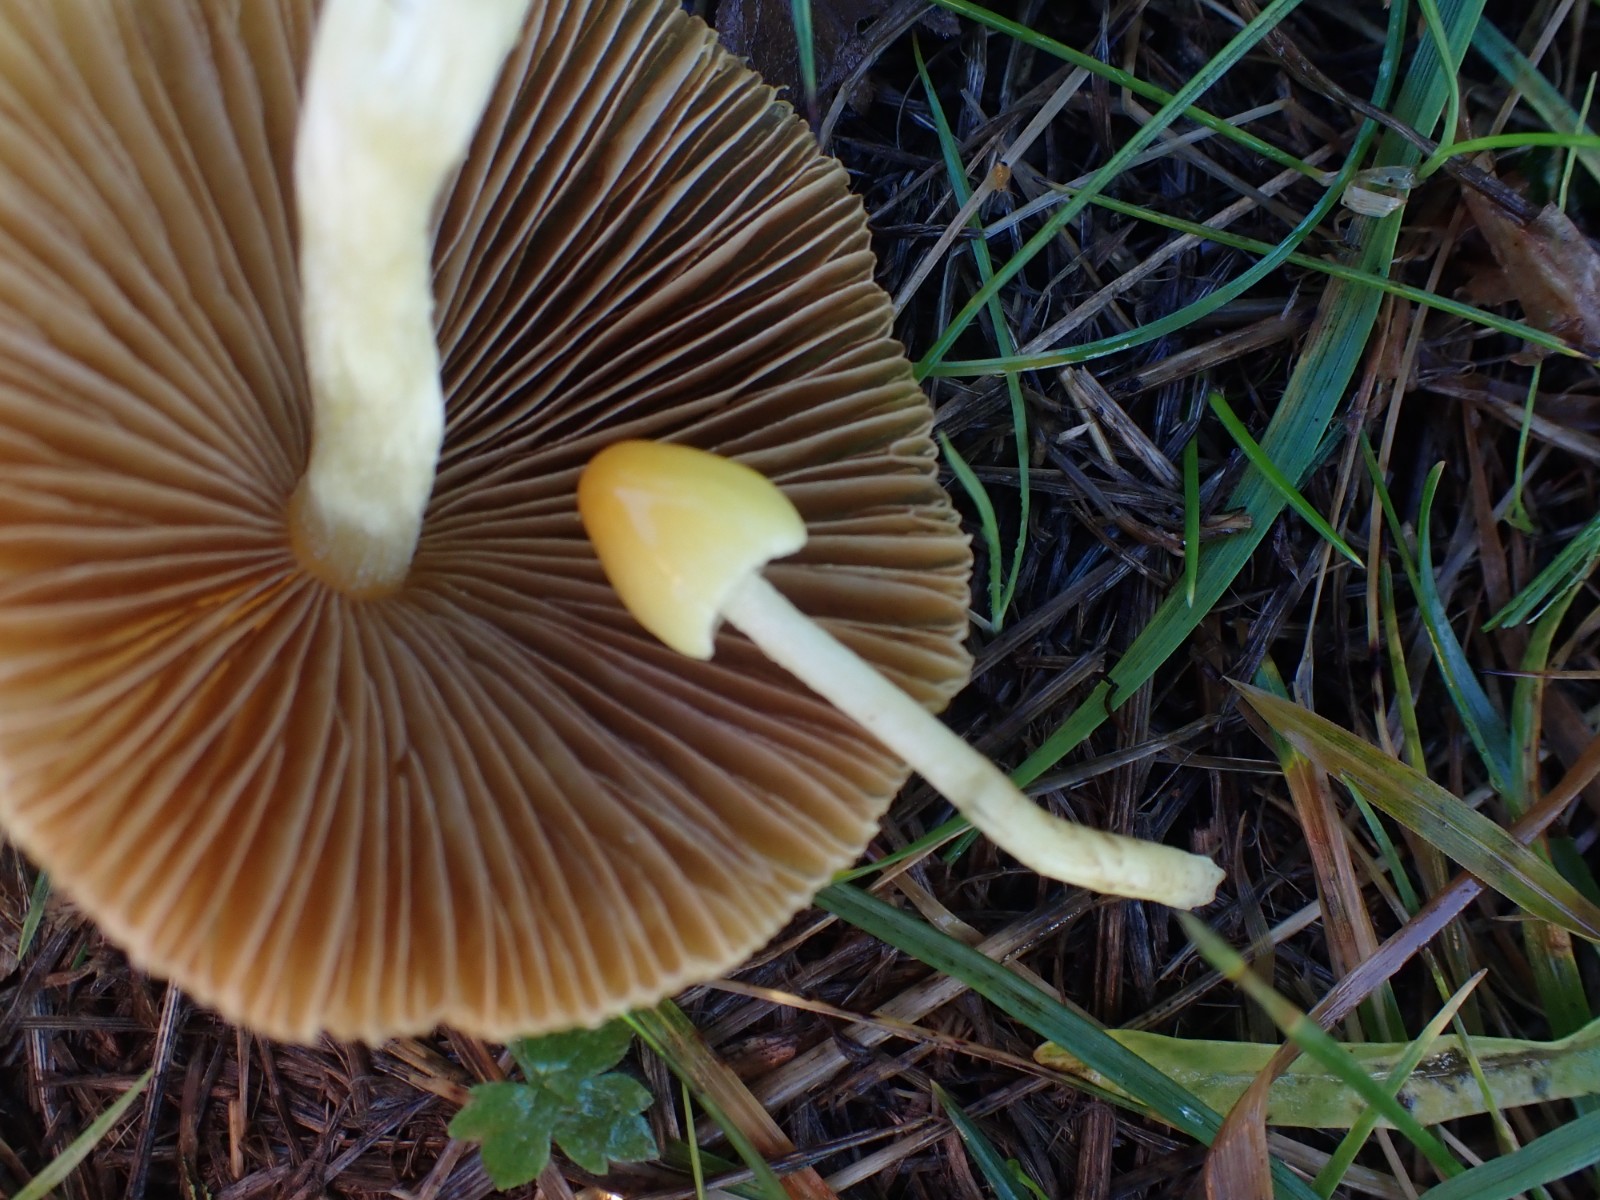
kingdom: Fungi
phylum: Basidiomycota
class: Agaricomycetes
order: Agaricales
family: Bolbitiaceae
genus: Bolbitius
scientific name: Bolbitius titubans
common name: almindelig gulhat
